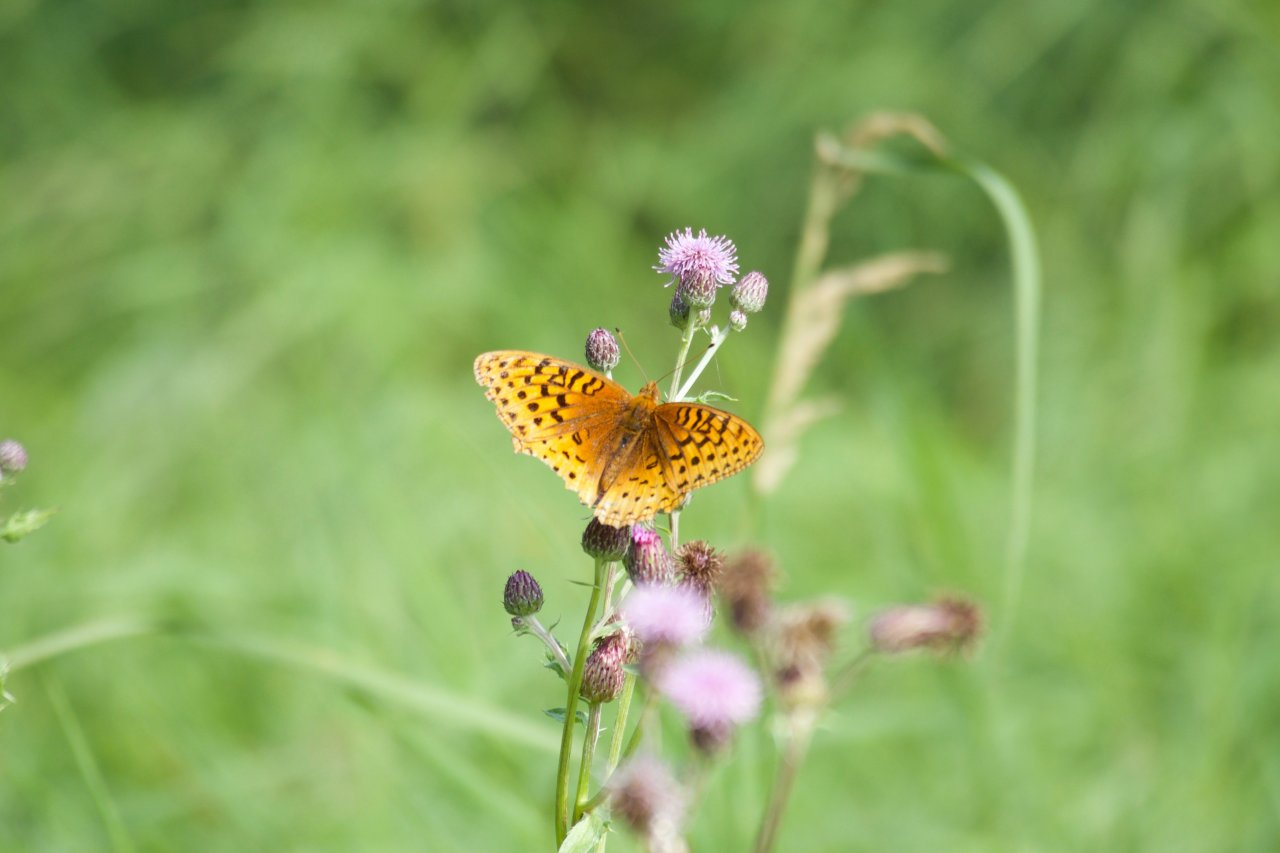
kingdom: Animalia
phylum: Arthropoda
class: Insecta
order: Lepidoptera
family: Nymphalidae
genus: Speyeria
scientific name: Speyeria cybele
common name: Great Spangled Fritillary
